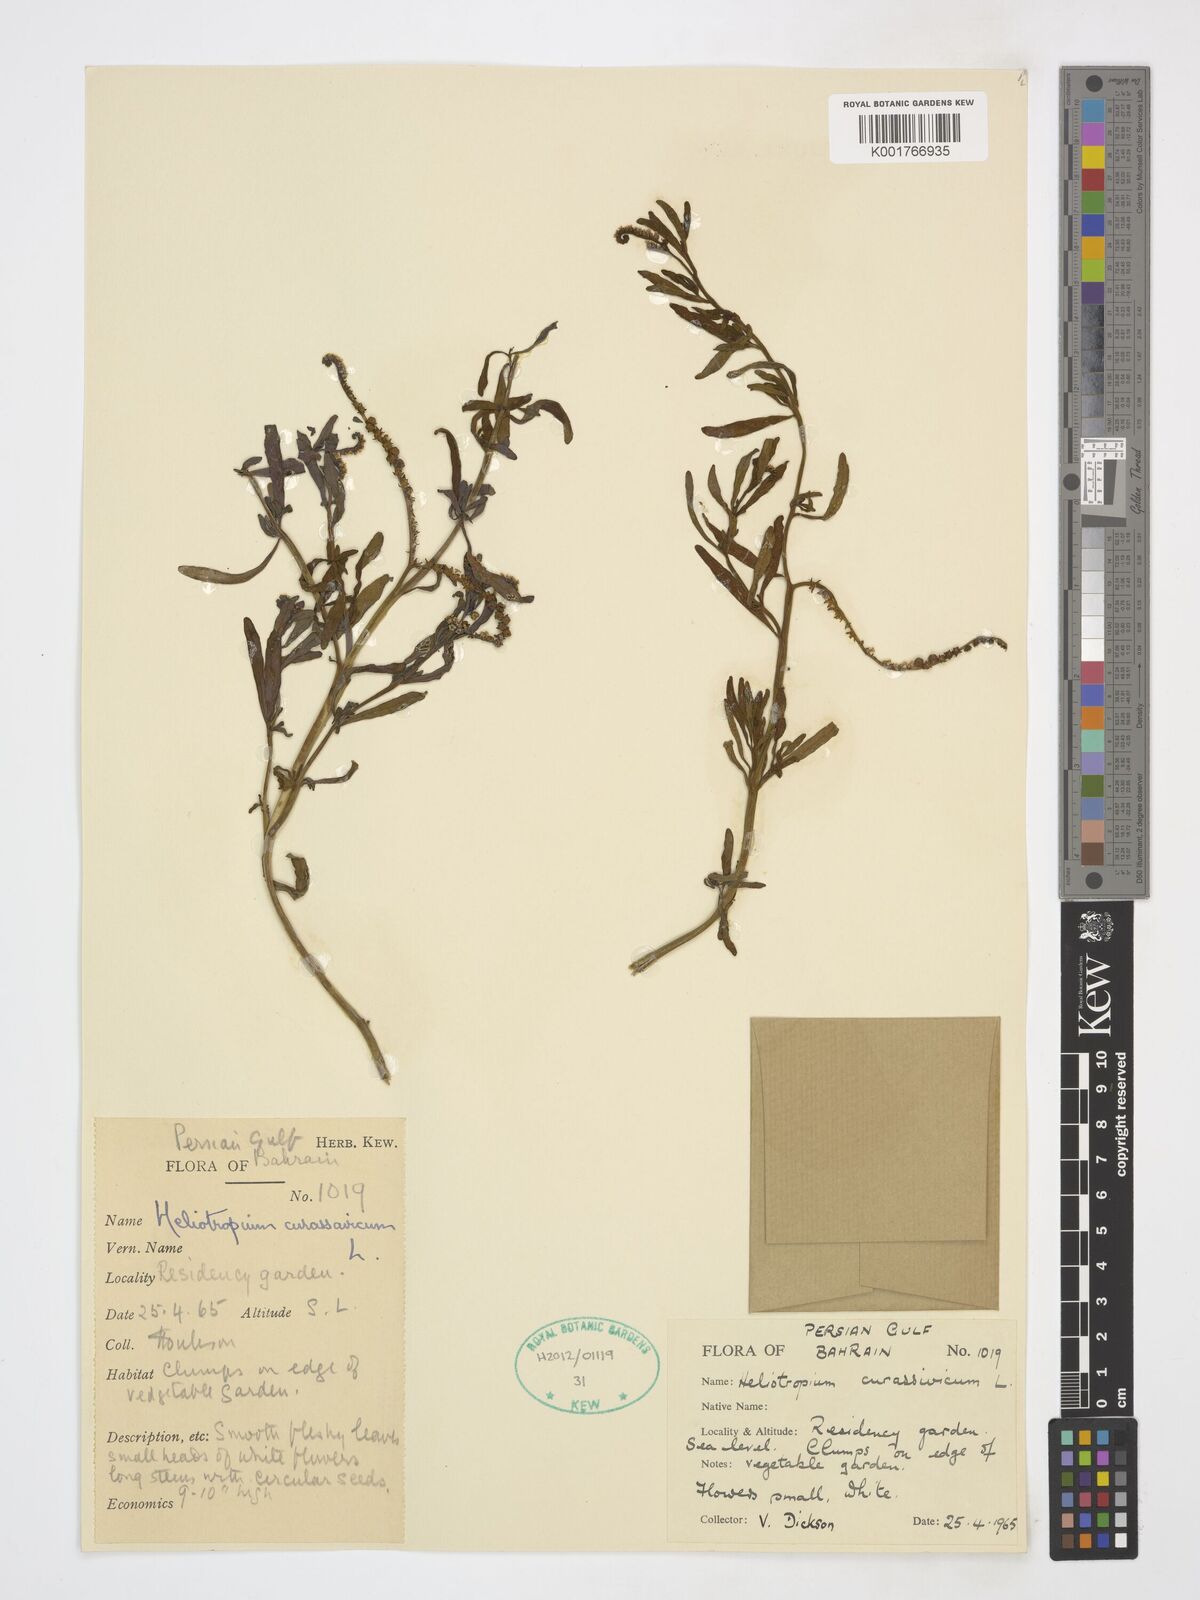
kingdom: Plantae
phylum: Tracheophyta
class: Magnoliopsida
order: Boraginales
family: Heliotropiaceae
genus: Heliotropium
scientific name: Heliotropium curassavicum
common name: Seaside heliotrope
